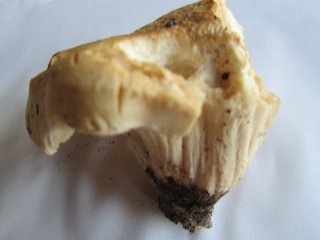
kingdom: Fungi
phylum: Basidiomycota
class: Agaricomycetes
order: Agaricales
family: Hygrophoraceae
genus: Hygrophorus
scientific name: Hygrophorus penarius
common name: spiselig sneglehat
